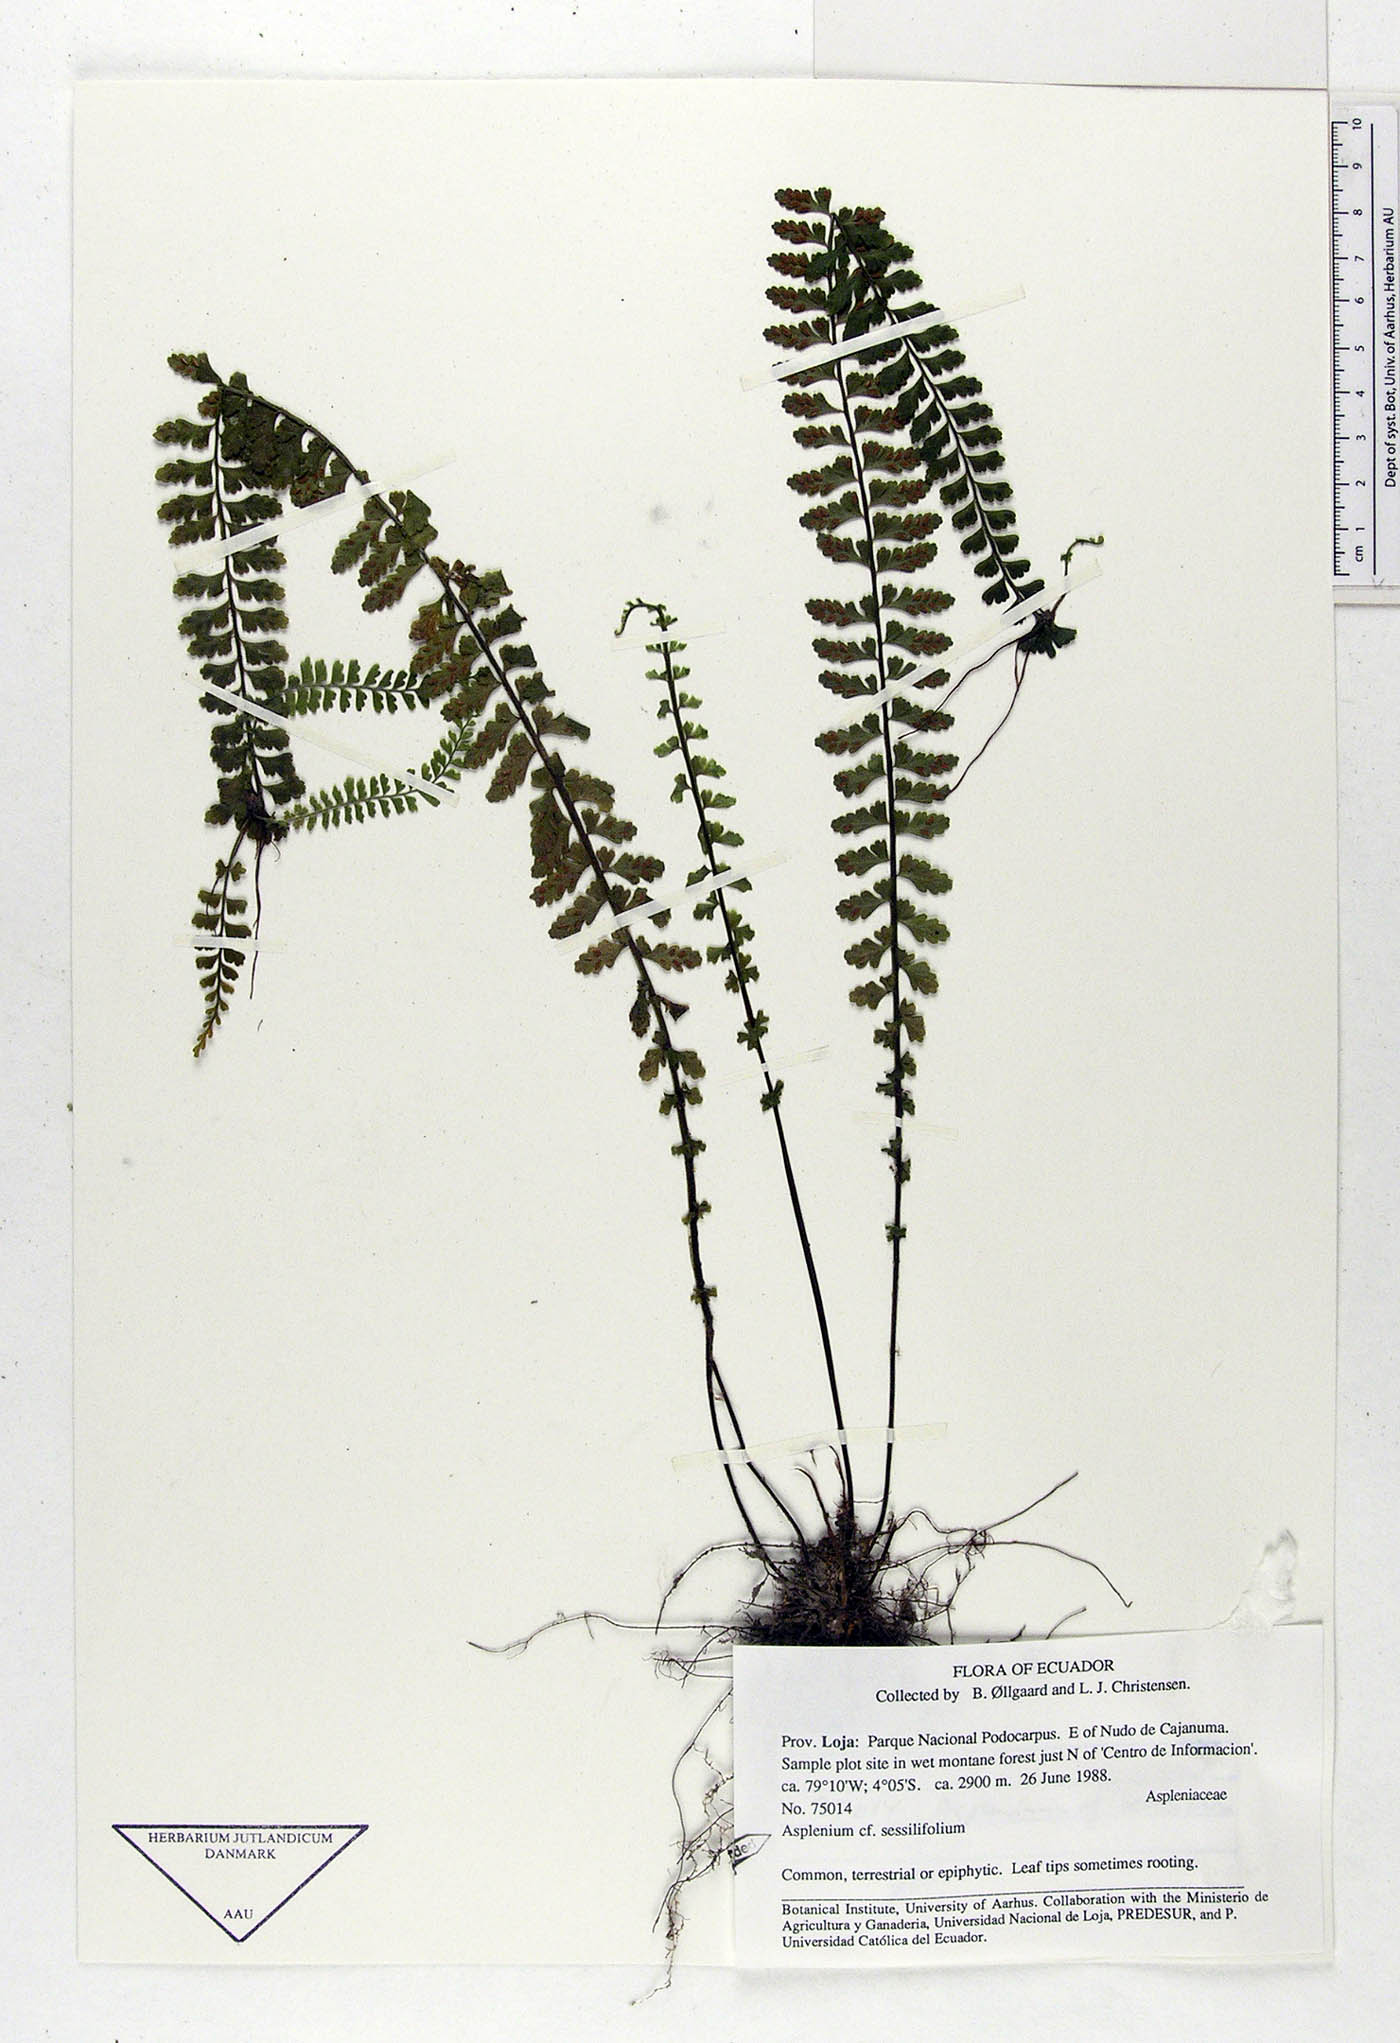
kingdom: Plantae
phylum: Tracheophyta
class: Polypodiopsida
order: Polypodiales
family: Aspleniaceae
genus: Asplenium
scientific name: Asplenium sessilifolium
